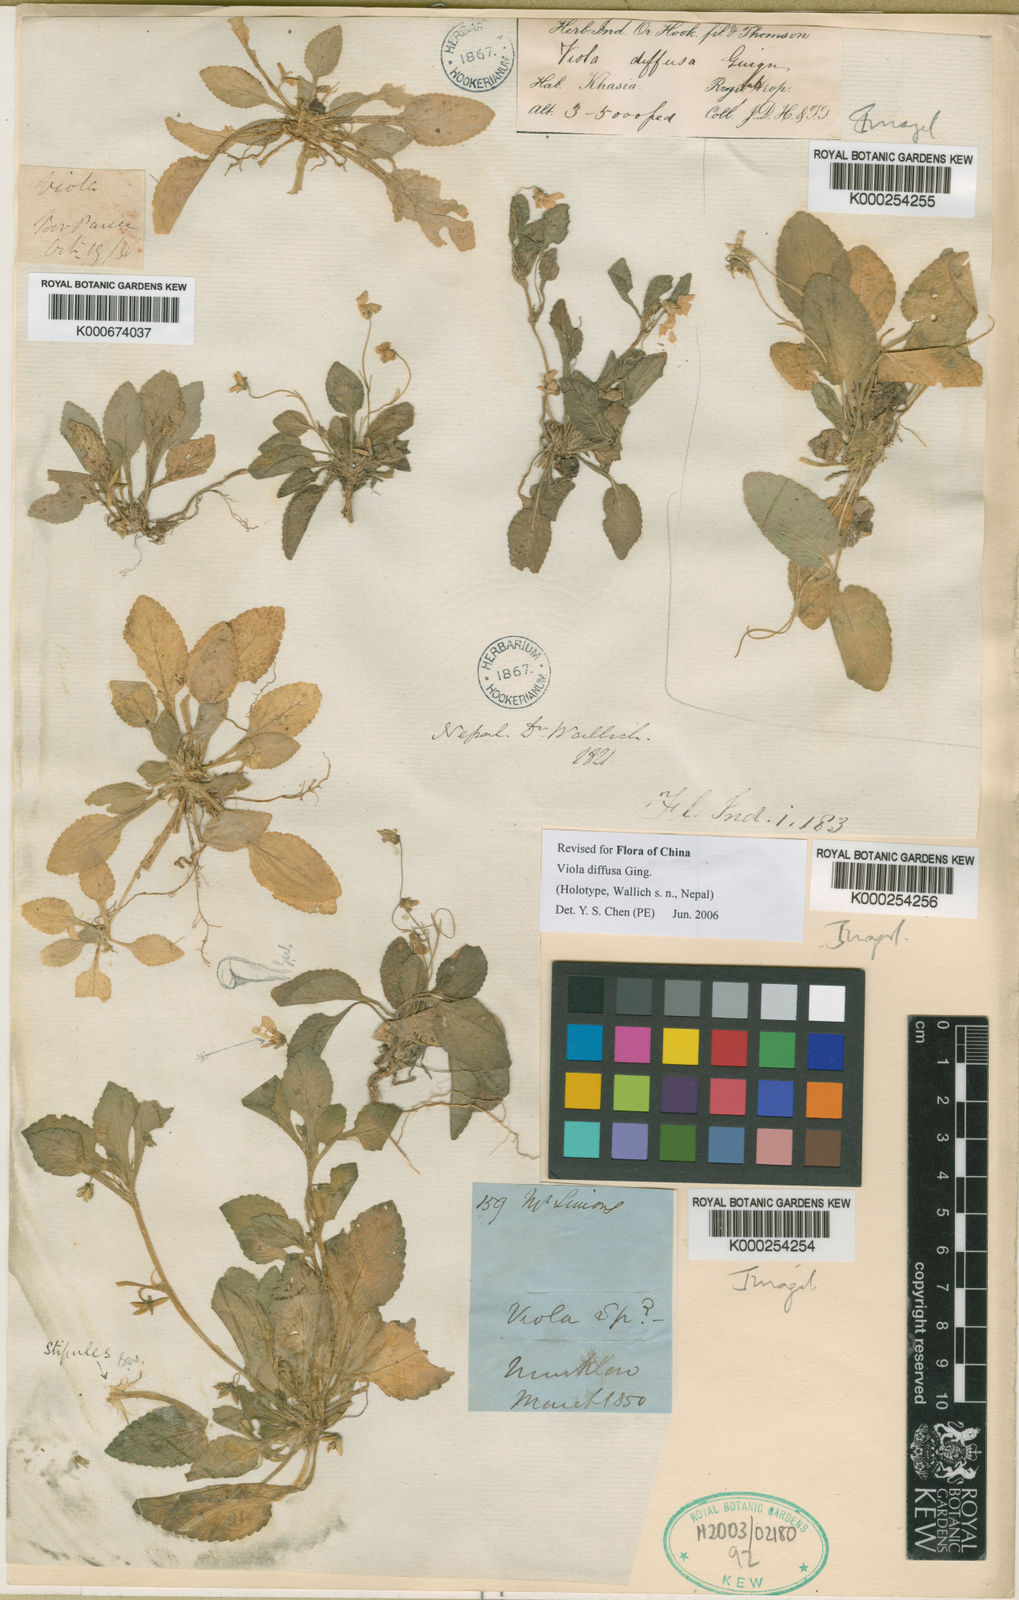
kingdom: Plantae
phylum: Tracheophyta
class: Magnoliopsida
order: Malpighiales
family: Violaceae
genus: Viola
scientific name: Viola diffusa
